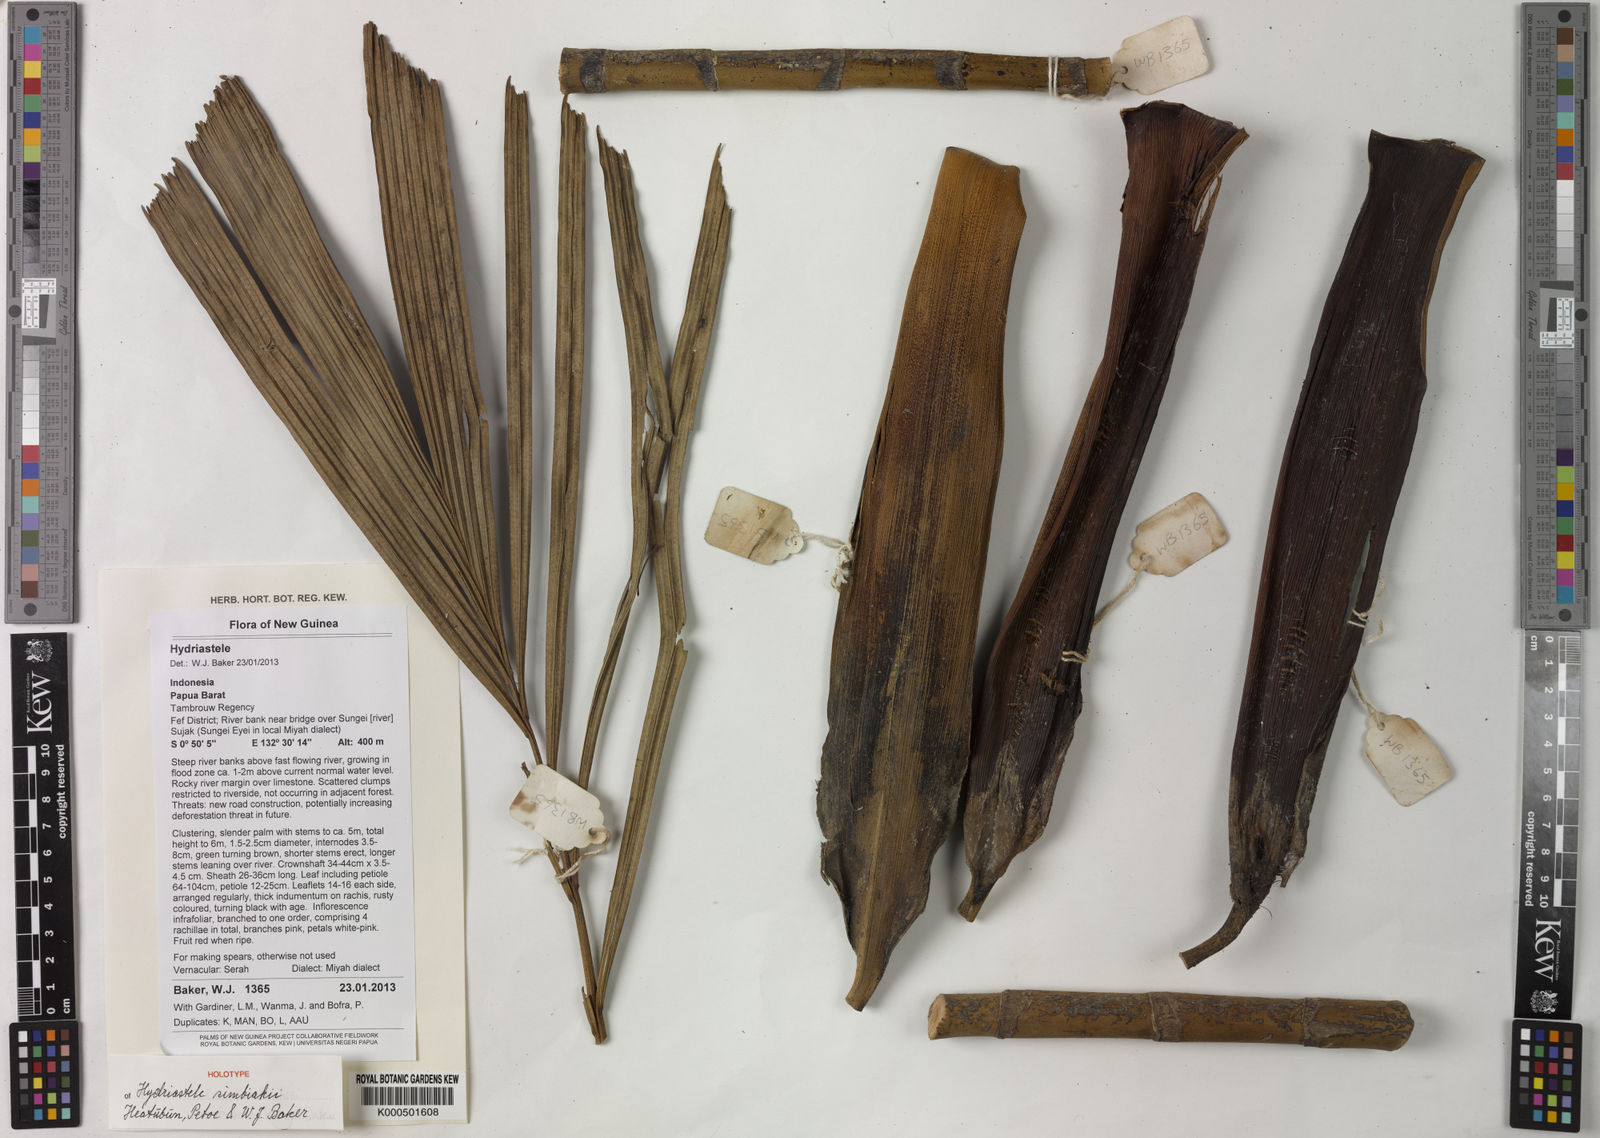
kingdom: Plantae
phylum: Tracheophyta
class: Liliopsida
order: Arecales
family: Arecaceae
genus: Hydriastele
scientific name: Hydriastele simbiakii
